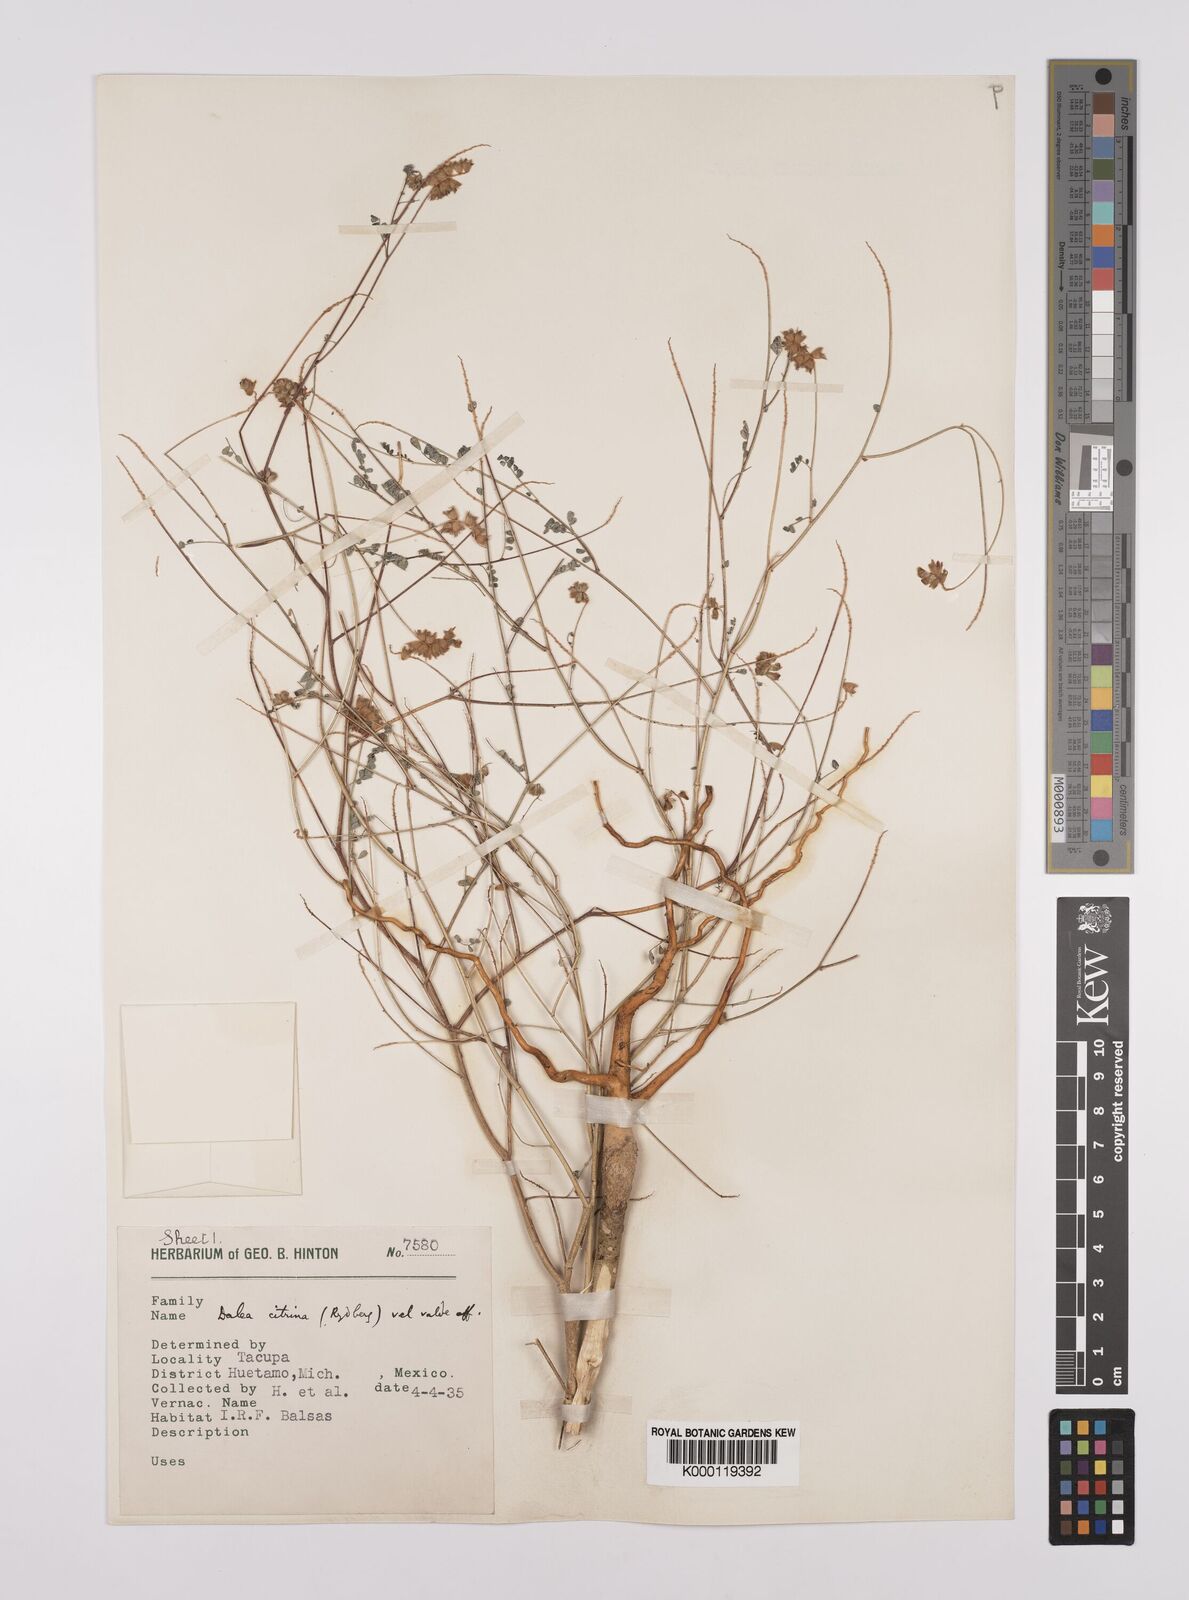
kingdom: Plantae
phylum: Tracheophyta
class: Magnoliopsida
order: Fabales
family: Fabaceae
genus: Dalea
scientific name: Dalea foliolosa
